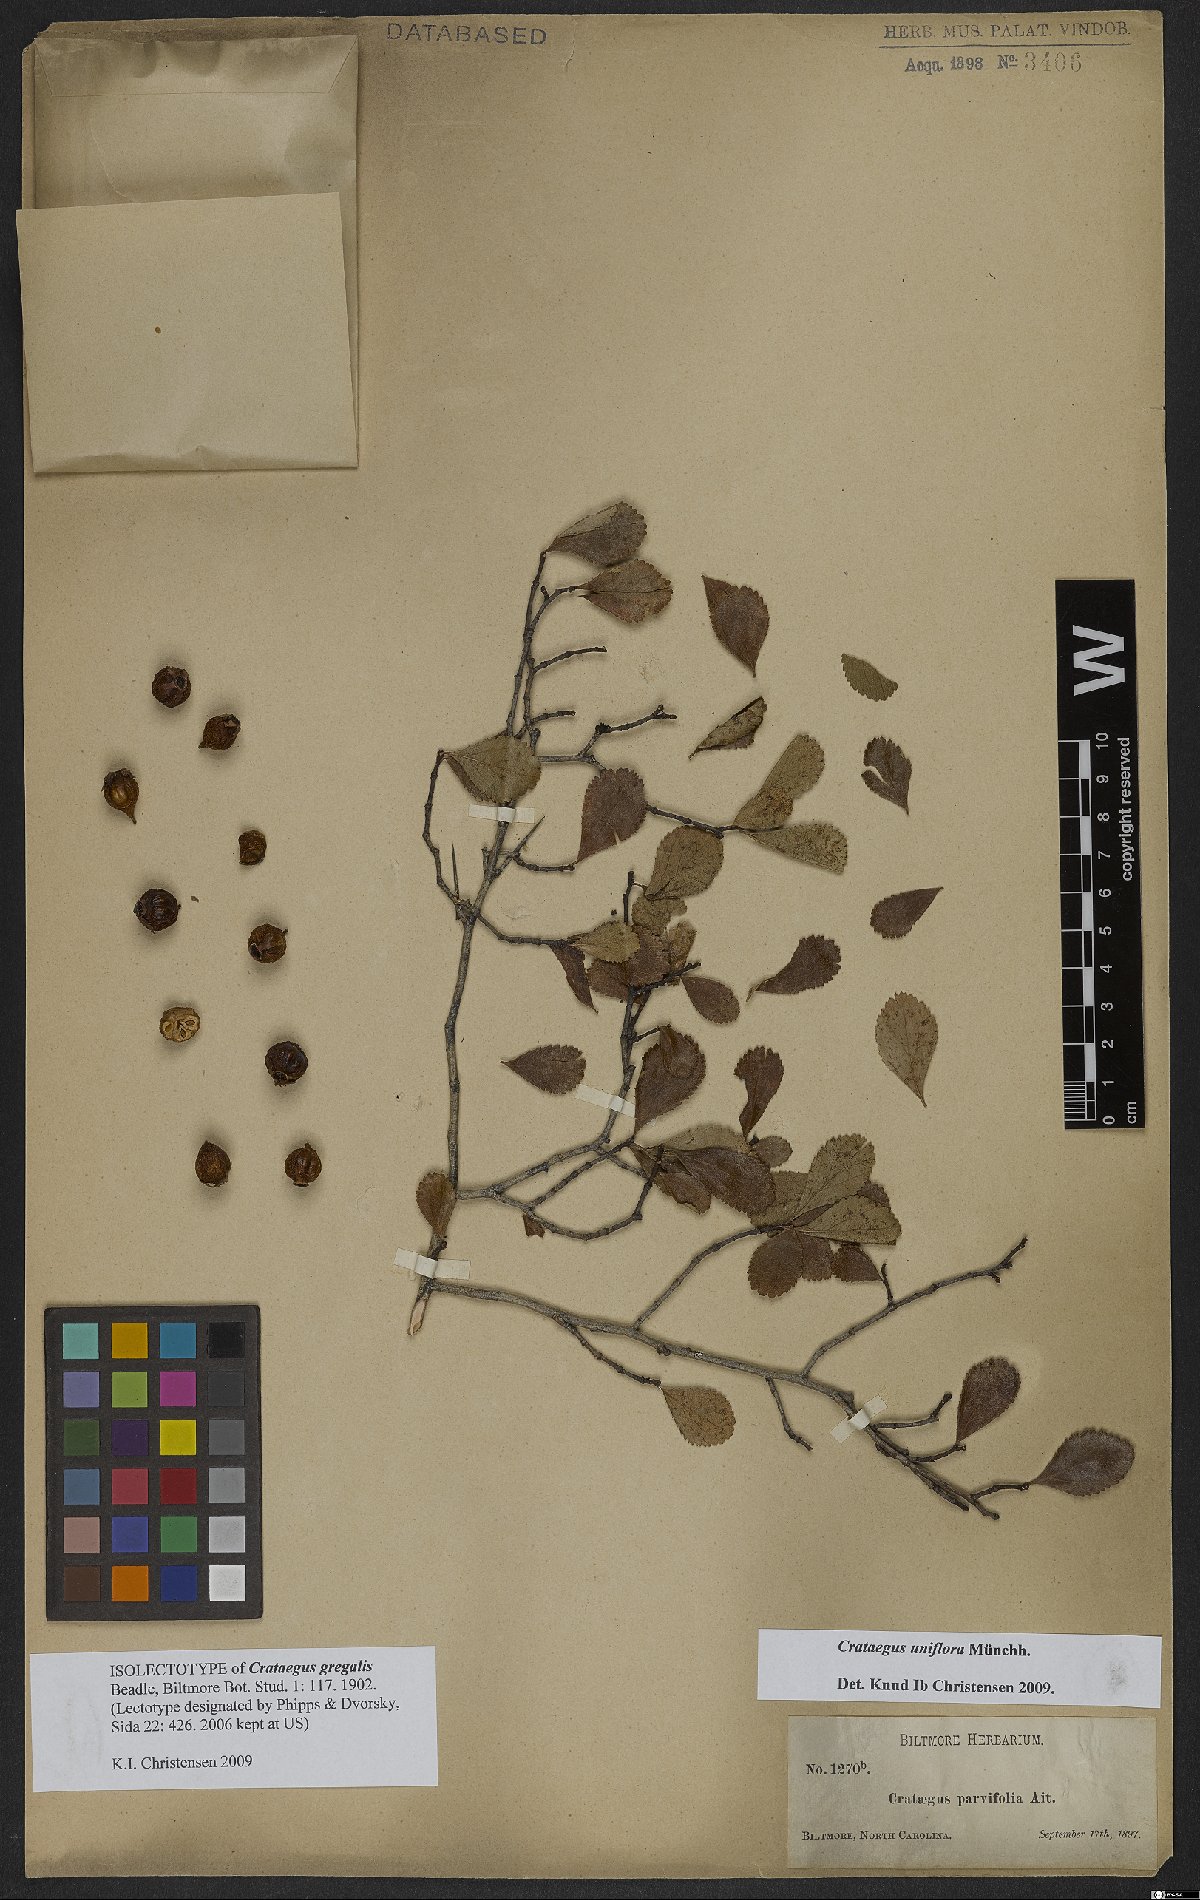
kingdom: Plantae
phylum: Tracheophyta
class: Magnoliopsida
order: Rosales
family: Rosaceae
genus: Crataegus
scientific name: Crataegus uniflora
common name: One-flower hawthorn
